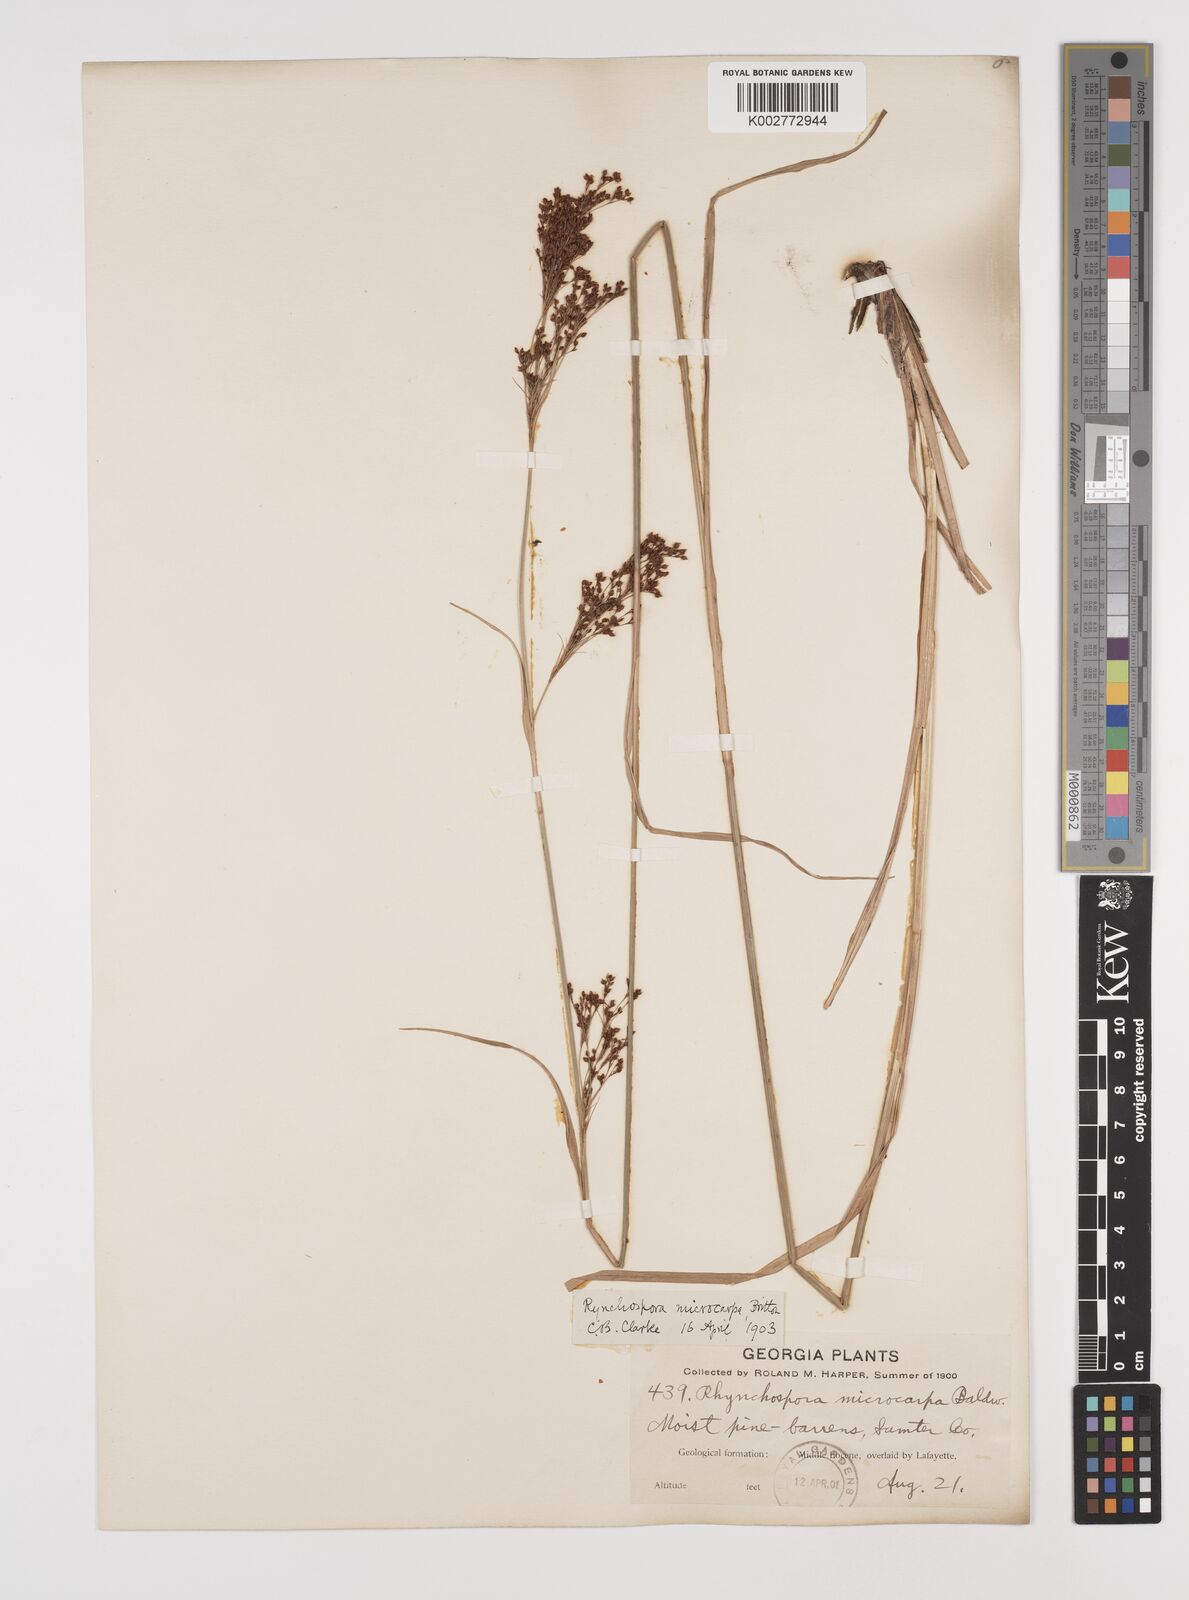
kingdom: Plantae
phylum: Tracheophyta
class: Liliopsida
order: Poales
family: Cyperaceae
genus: Rhynchospora
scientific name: Rhynchospora microcarpa
